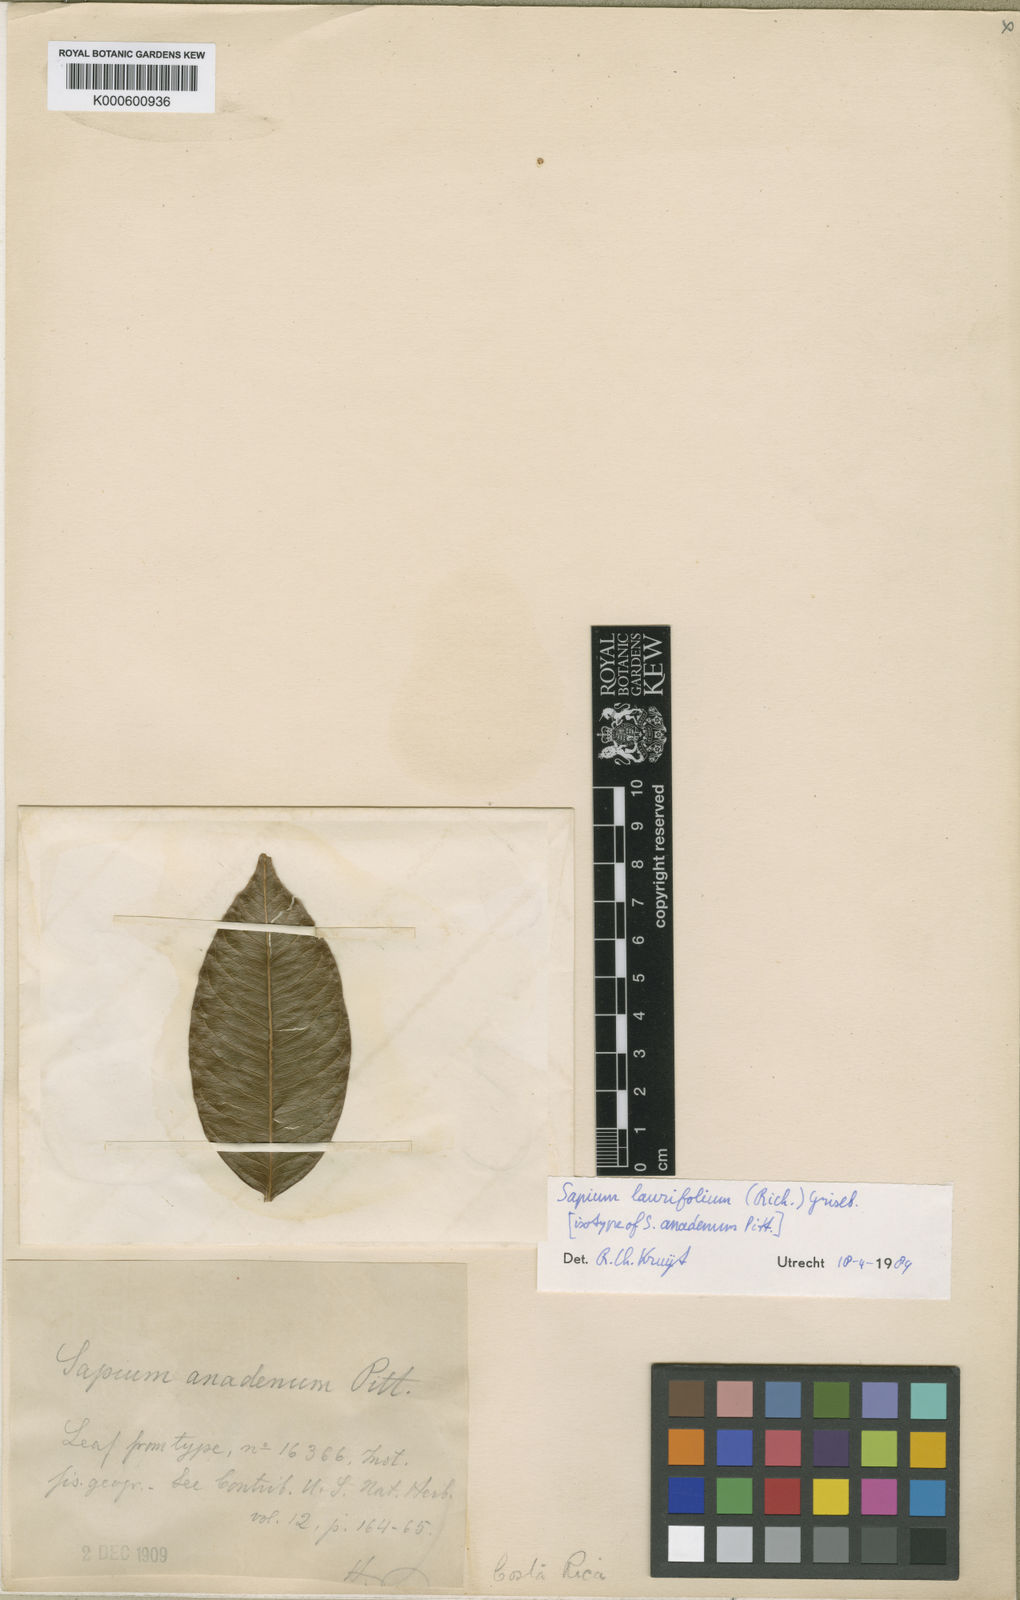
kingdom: Plantae
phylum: Tracheophyta
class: Magnoliopsida
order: Malpighiales
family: Euphorbiaceae
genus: Sapium
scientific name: Sapium glandulosum
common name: Milktree
